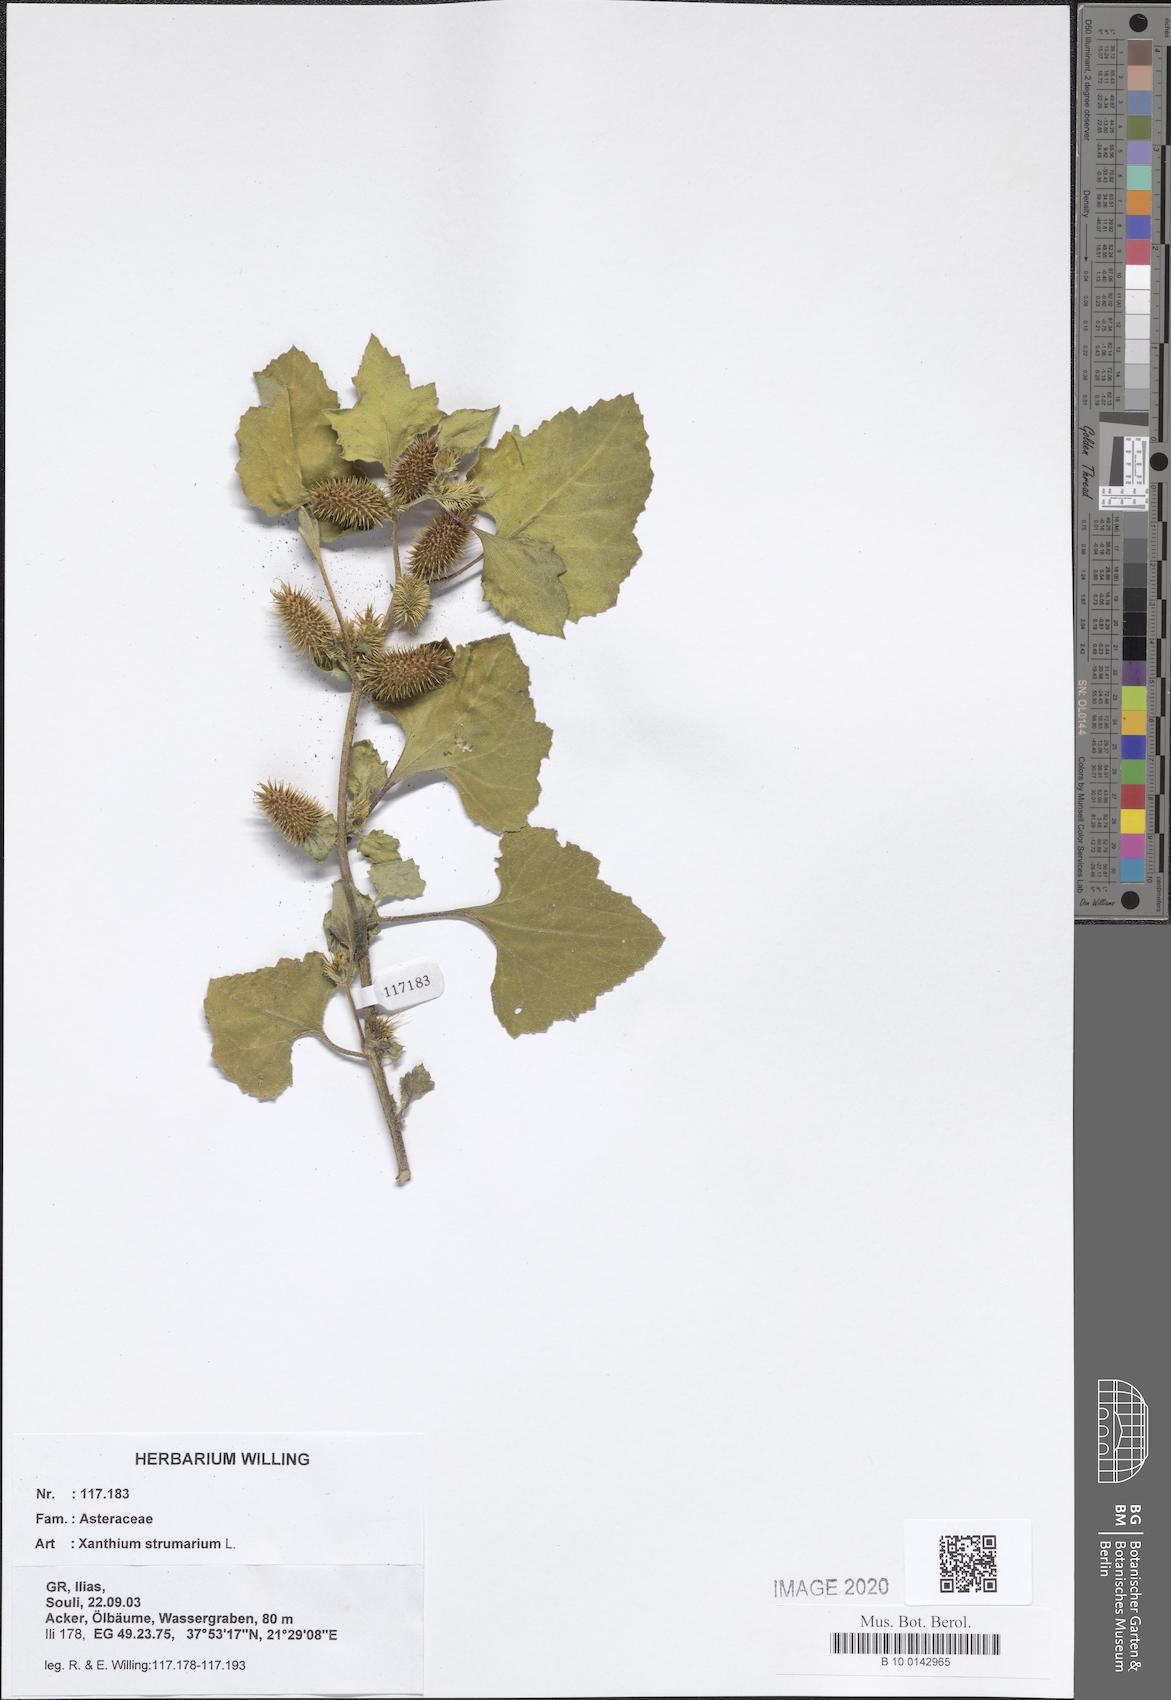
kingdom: Plantae
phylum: Tracheophyta
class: Magnoliopsida
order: Asterales
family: Asteraceae
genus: Xanthium
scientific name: Xanthium strumarium
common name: Rough cocklebur
